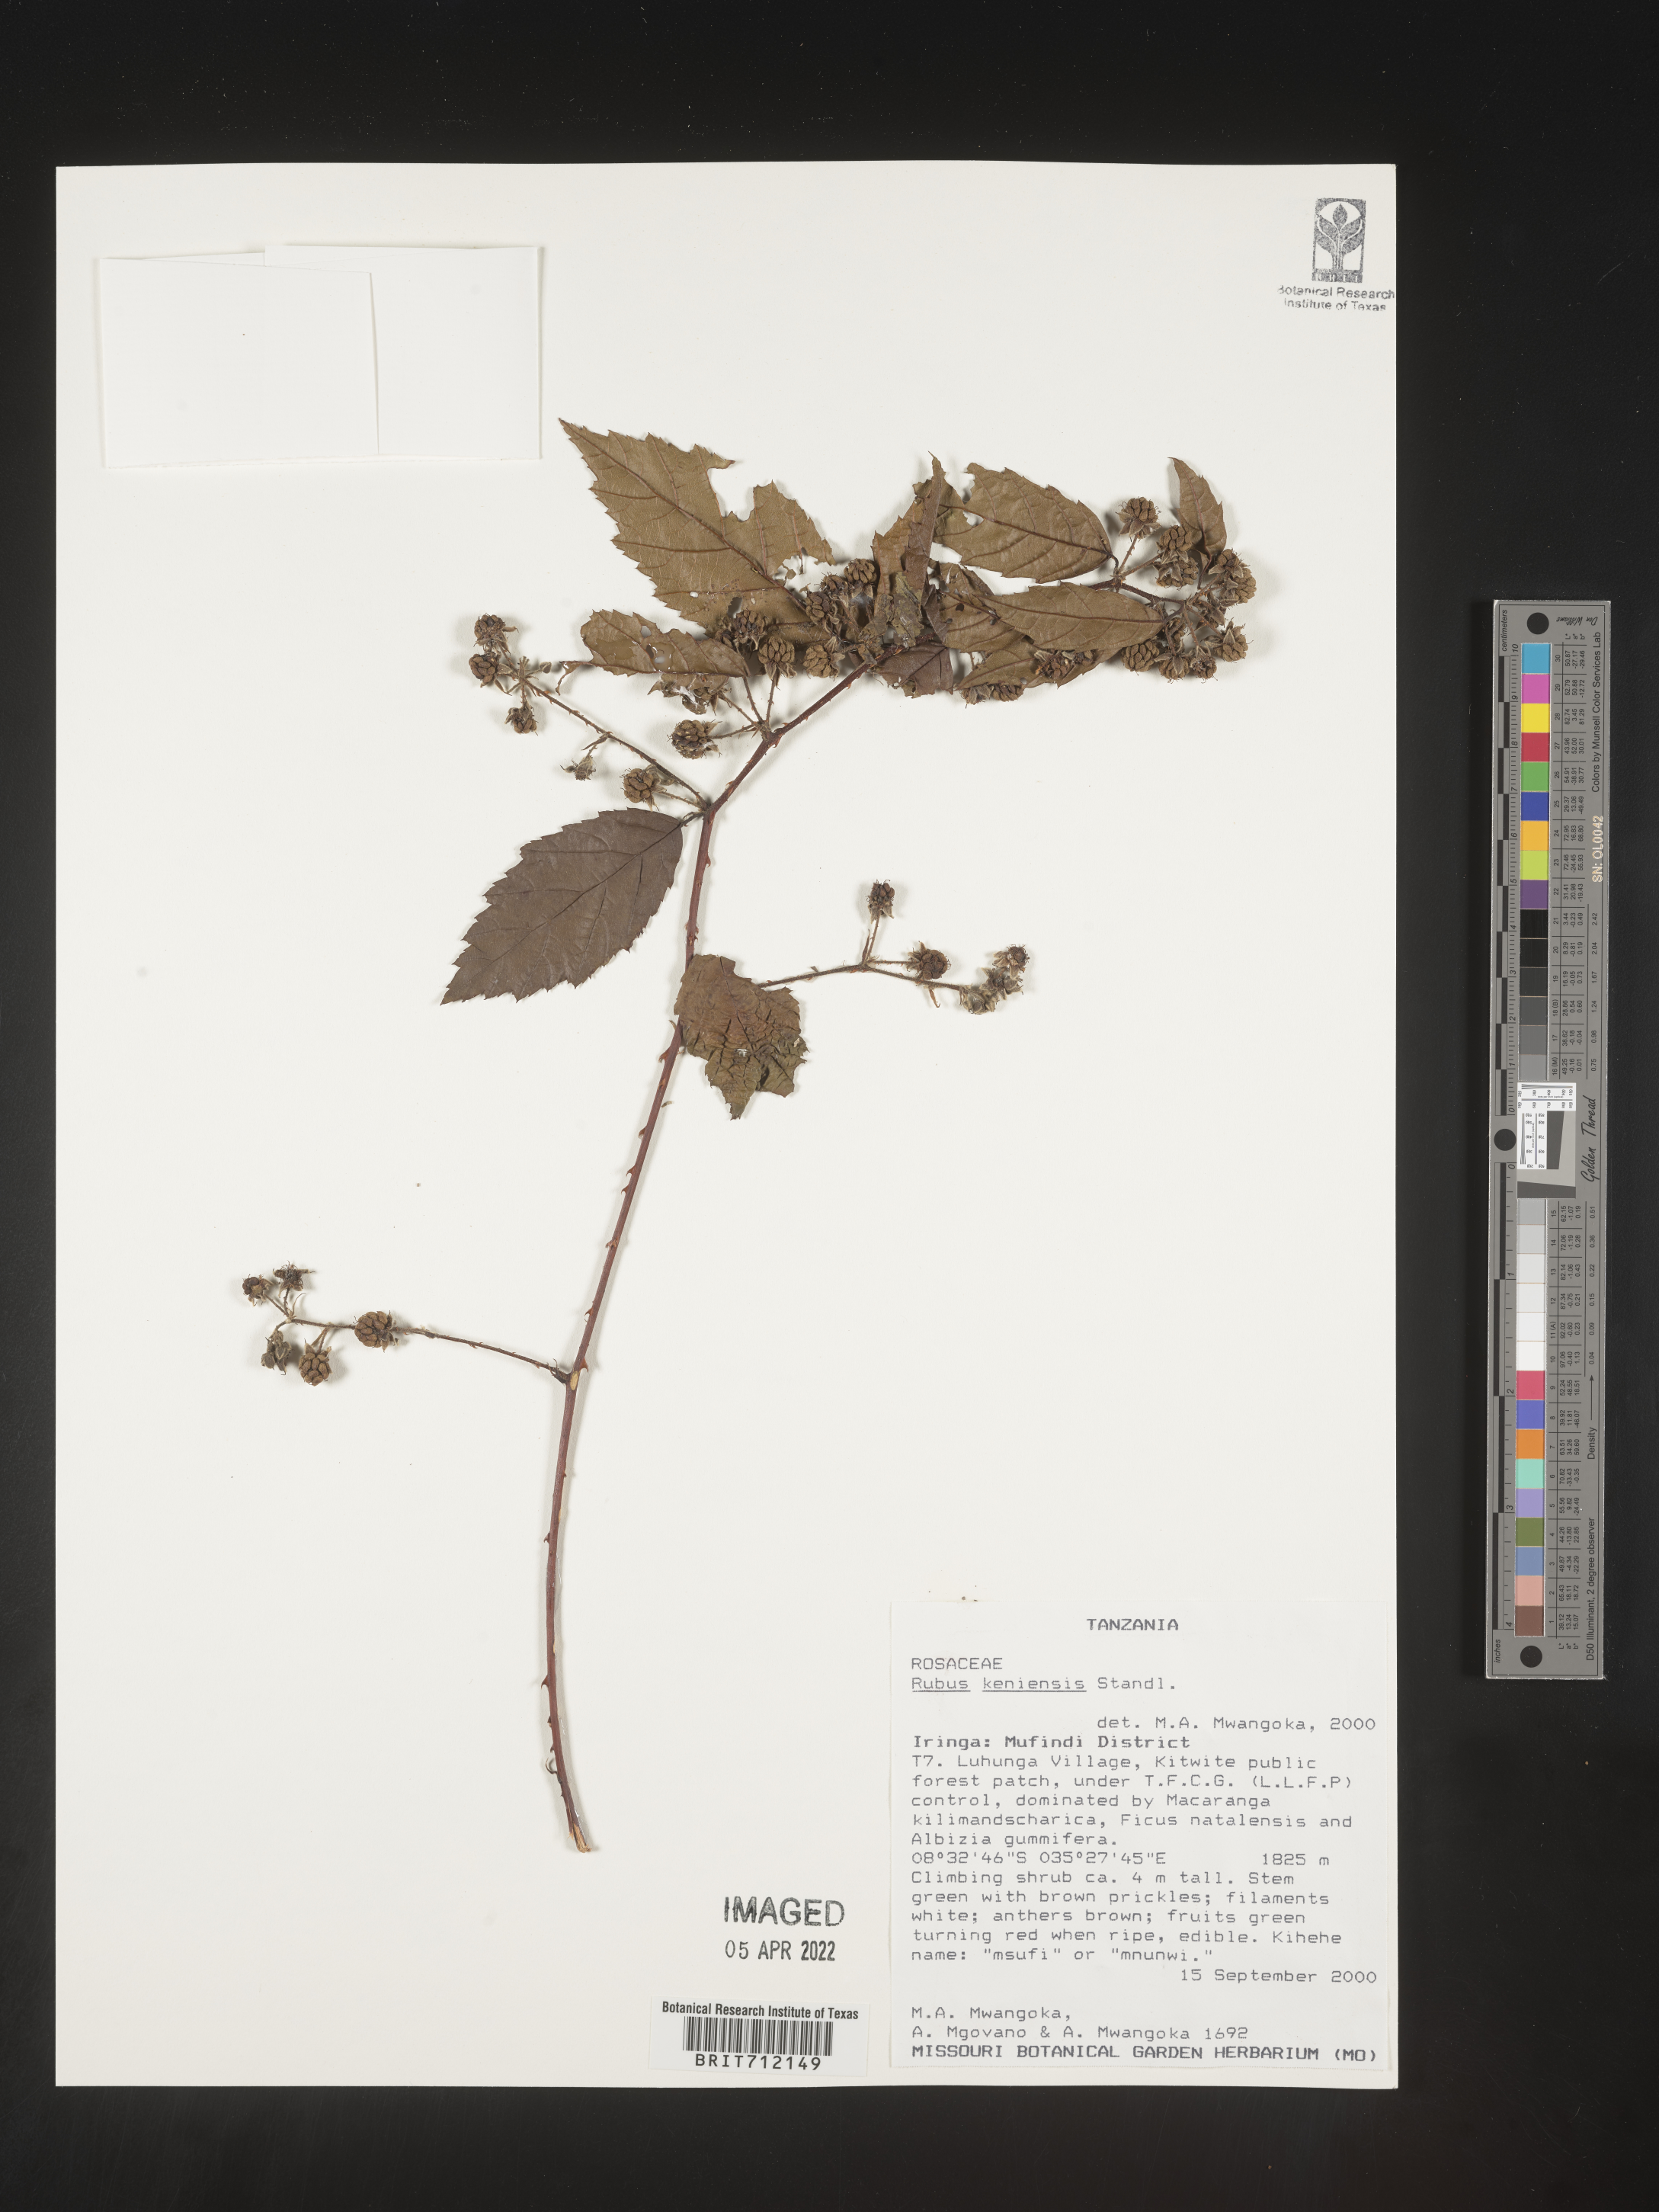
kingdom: Plantae
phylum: Tracheophyta
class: Magnoliopsida
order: Rosales
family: Rosaceae
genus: Rubus
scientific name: Rubus
